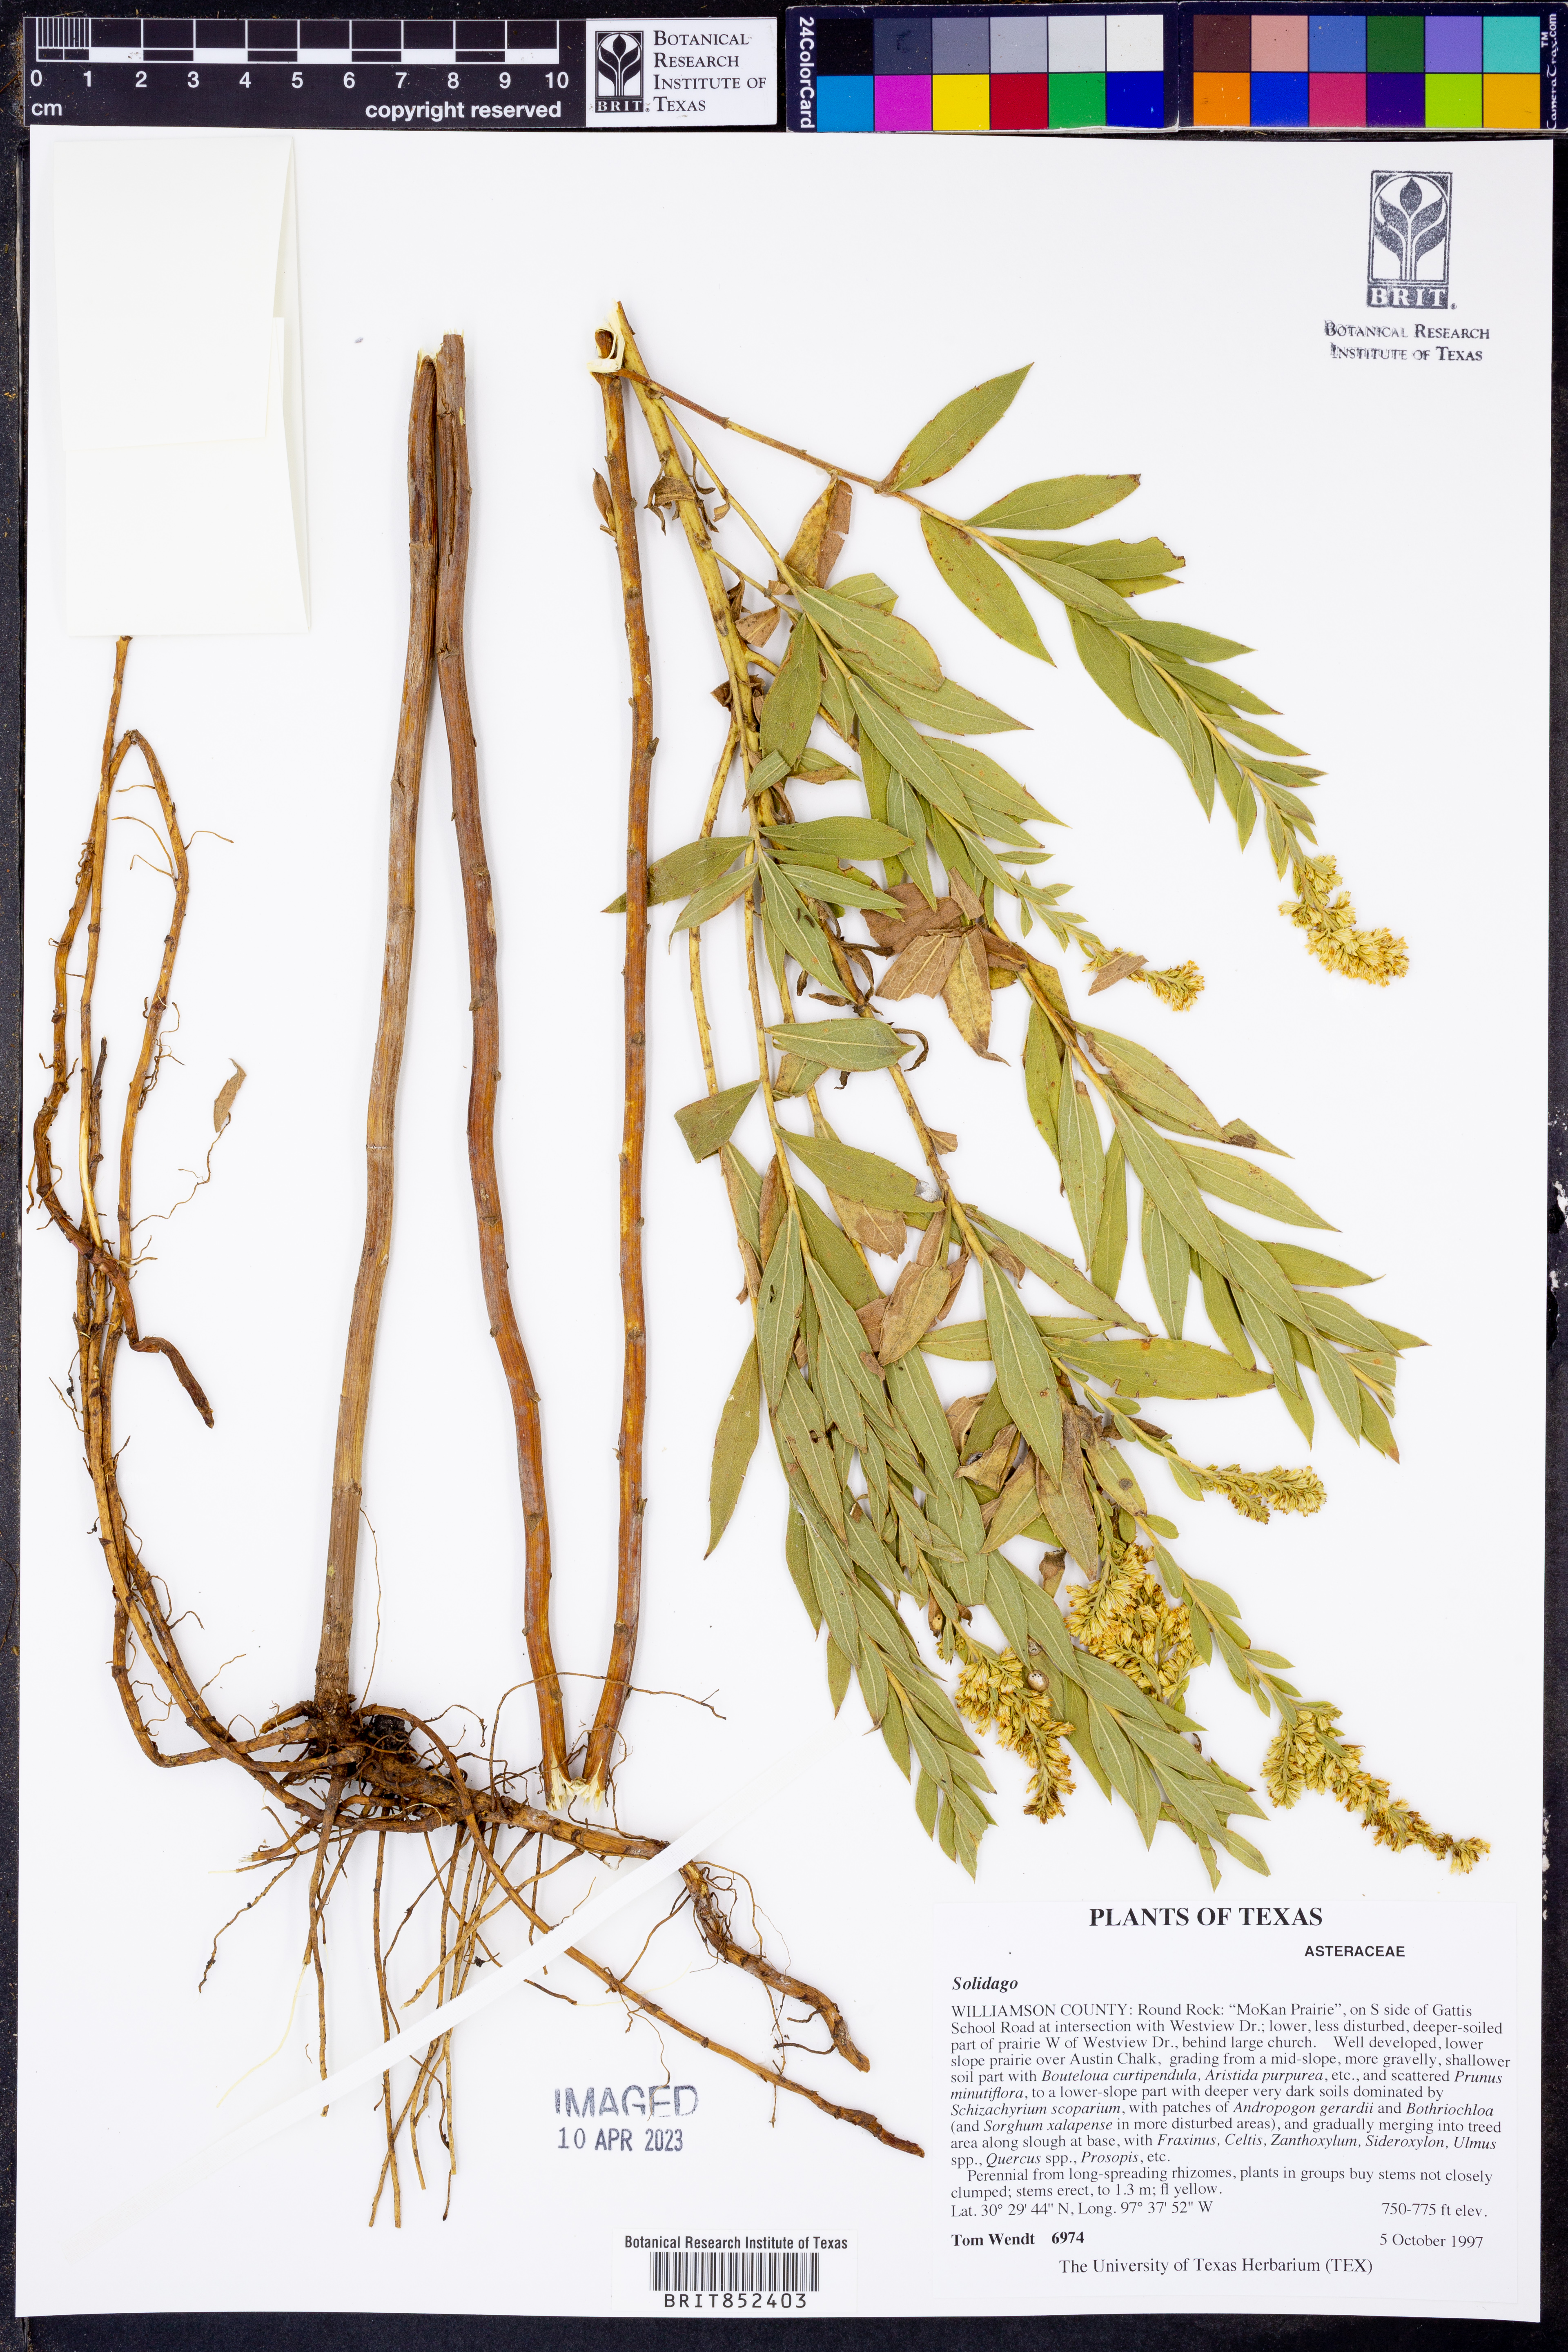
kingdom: Plantae
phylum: Tracheophyta
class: Magnoliopsida
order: Asterales
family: Asteraceae
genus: Solidago
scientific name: Solidago
